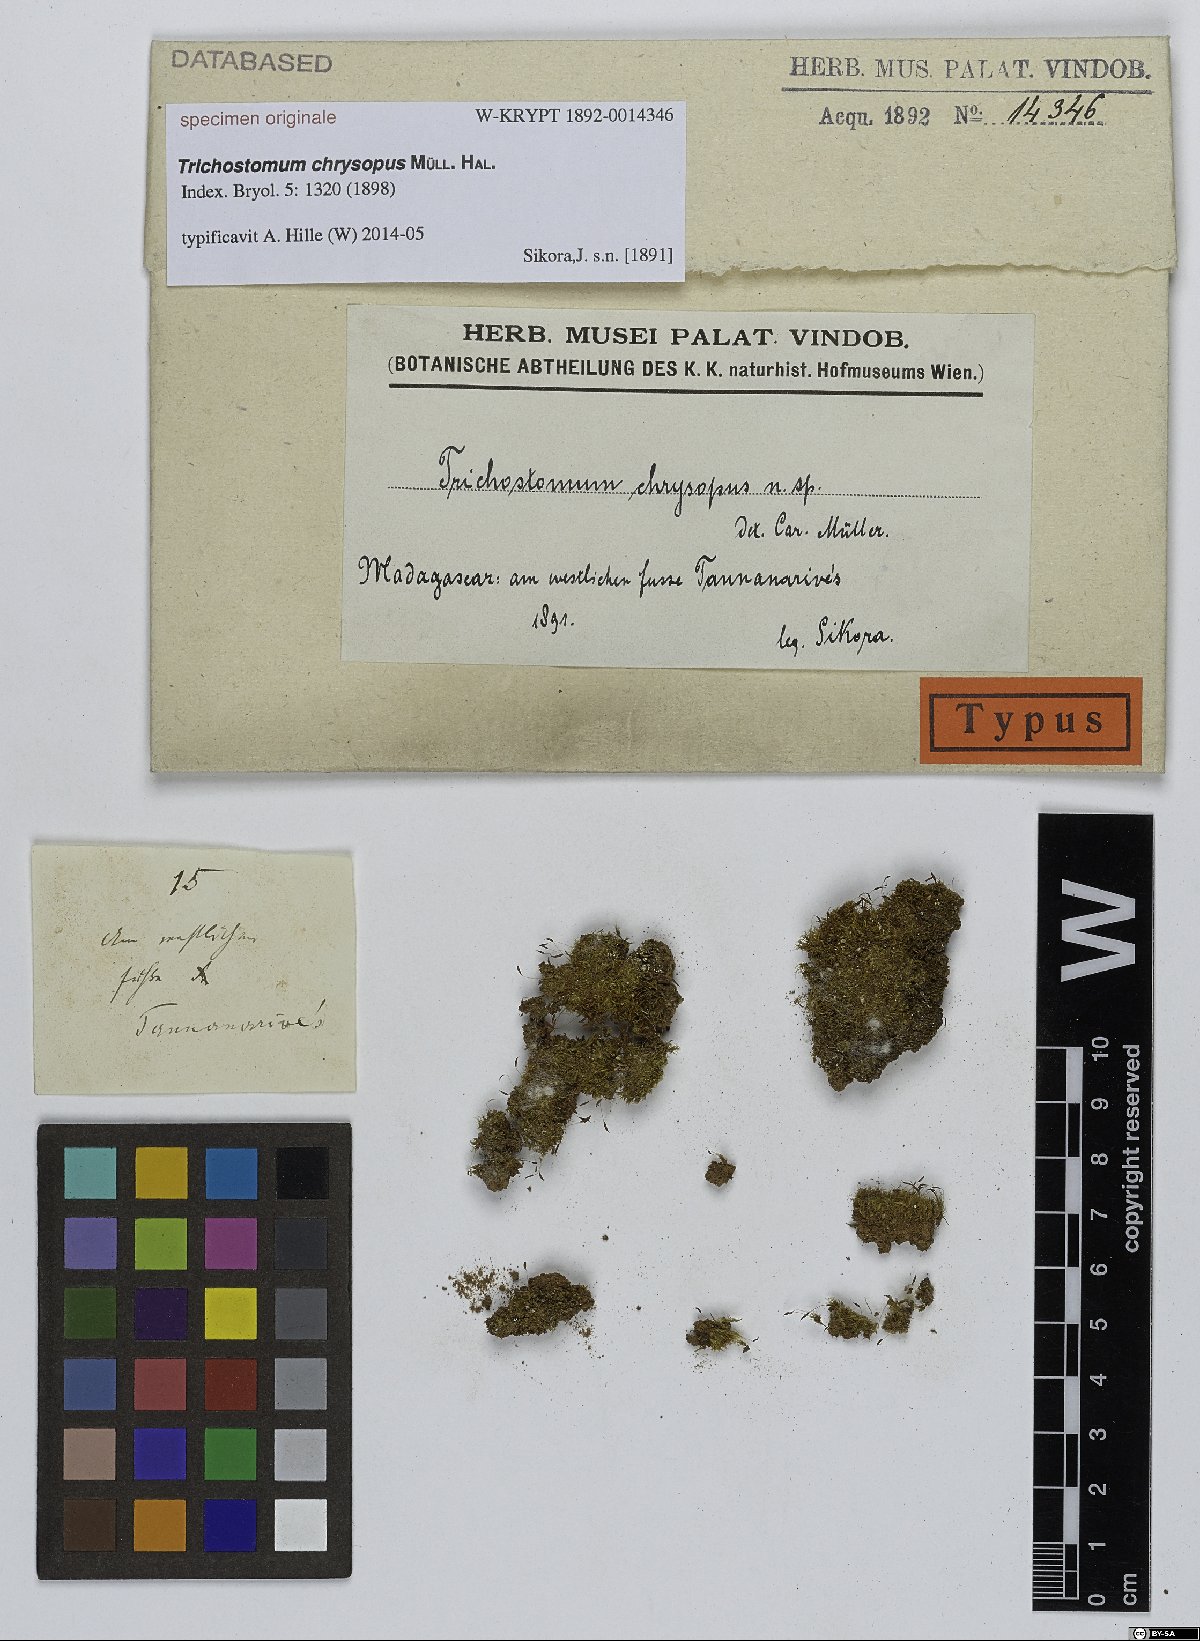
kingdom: Plantae
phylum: Bryophyta
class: Bryopsida
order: Pottiales
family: Pottiaceae
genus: Trichostomum
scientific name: Trichostomum
